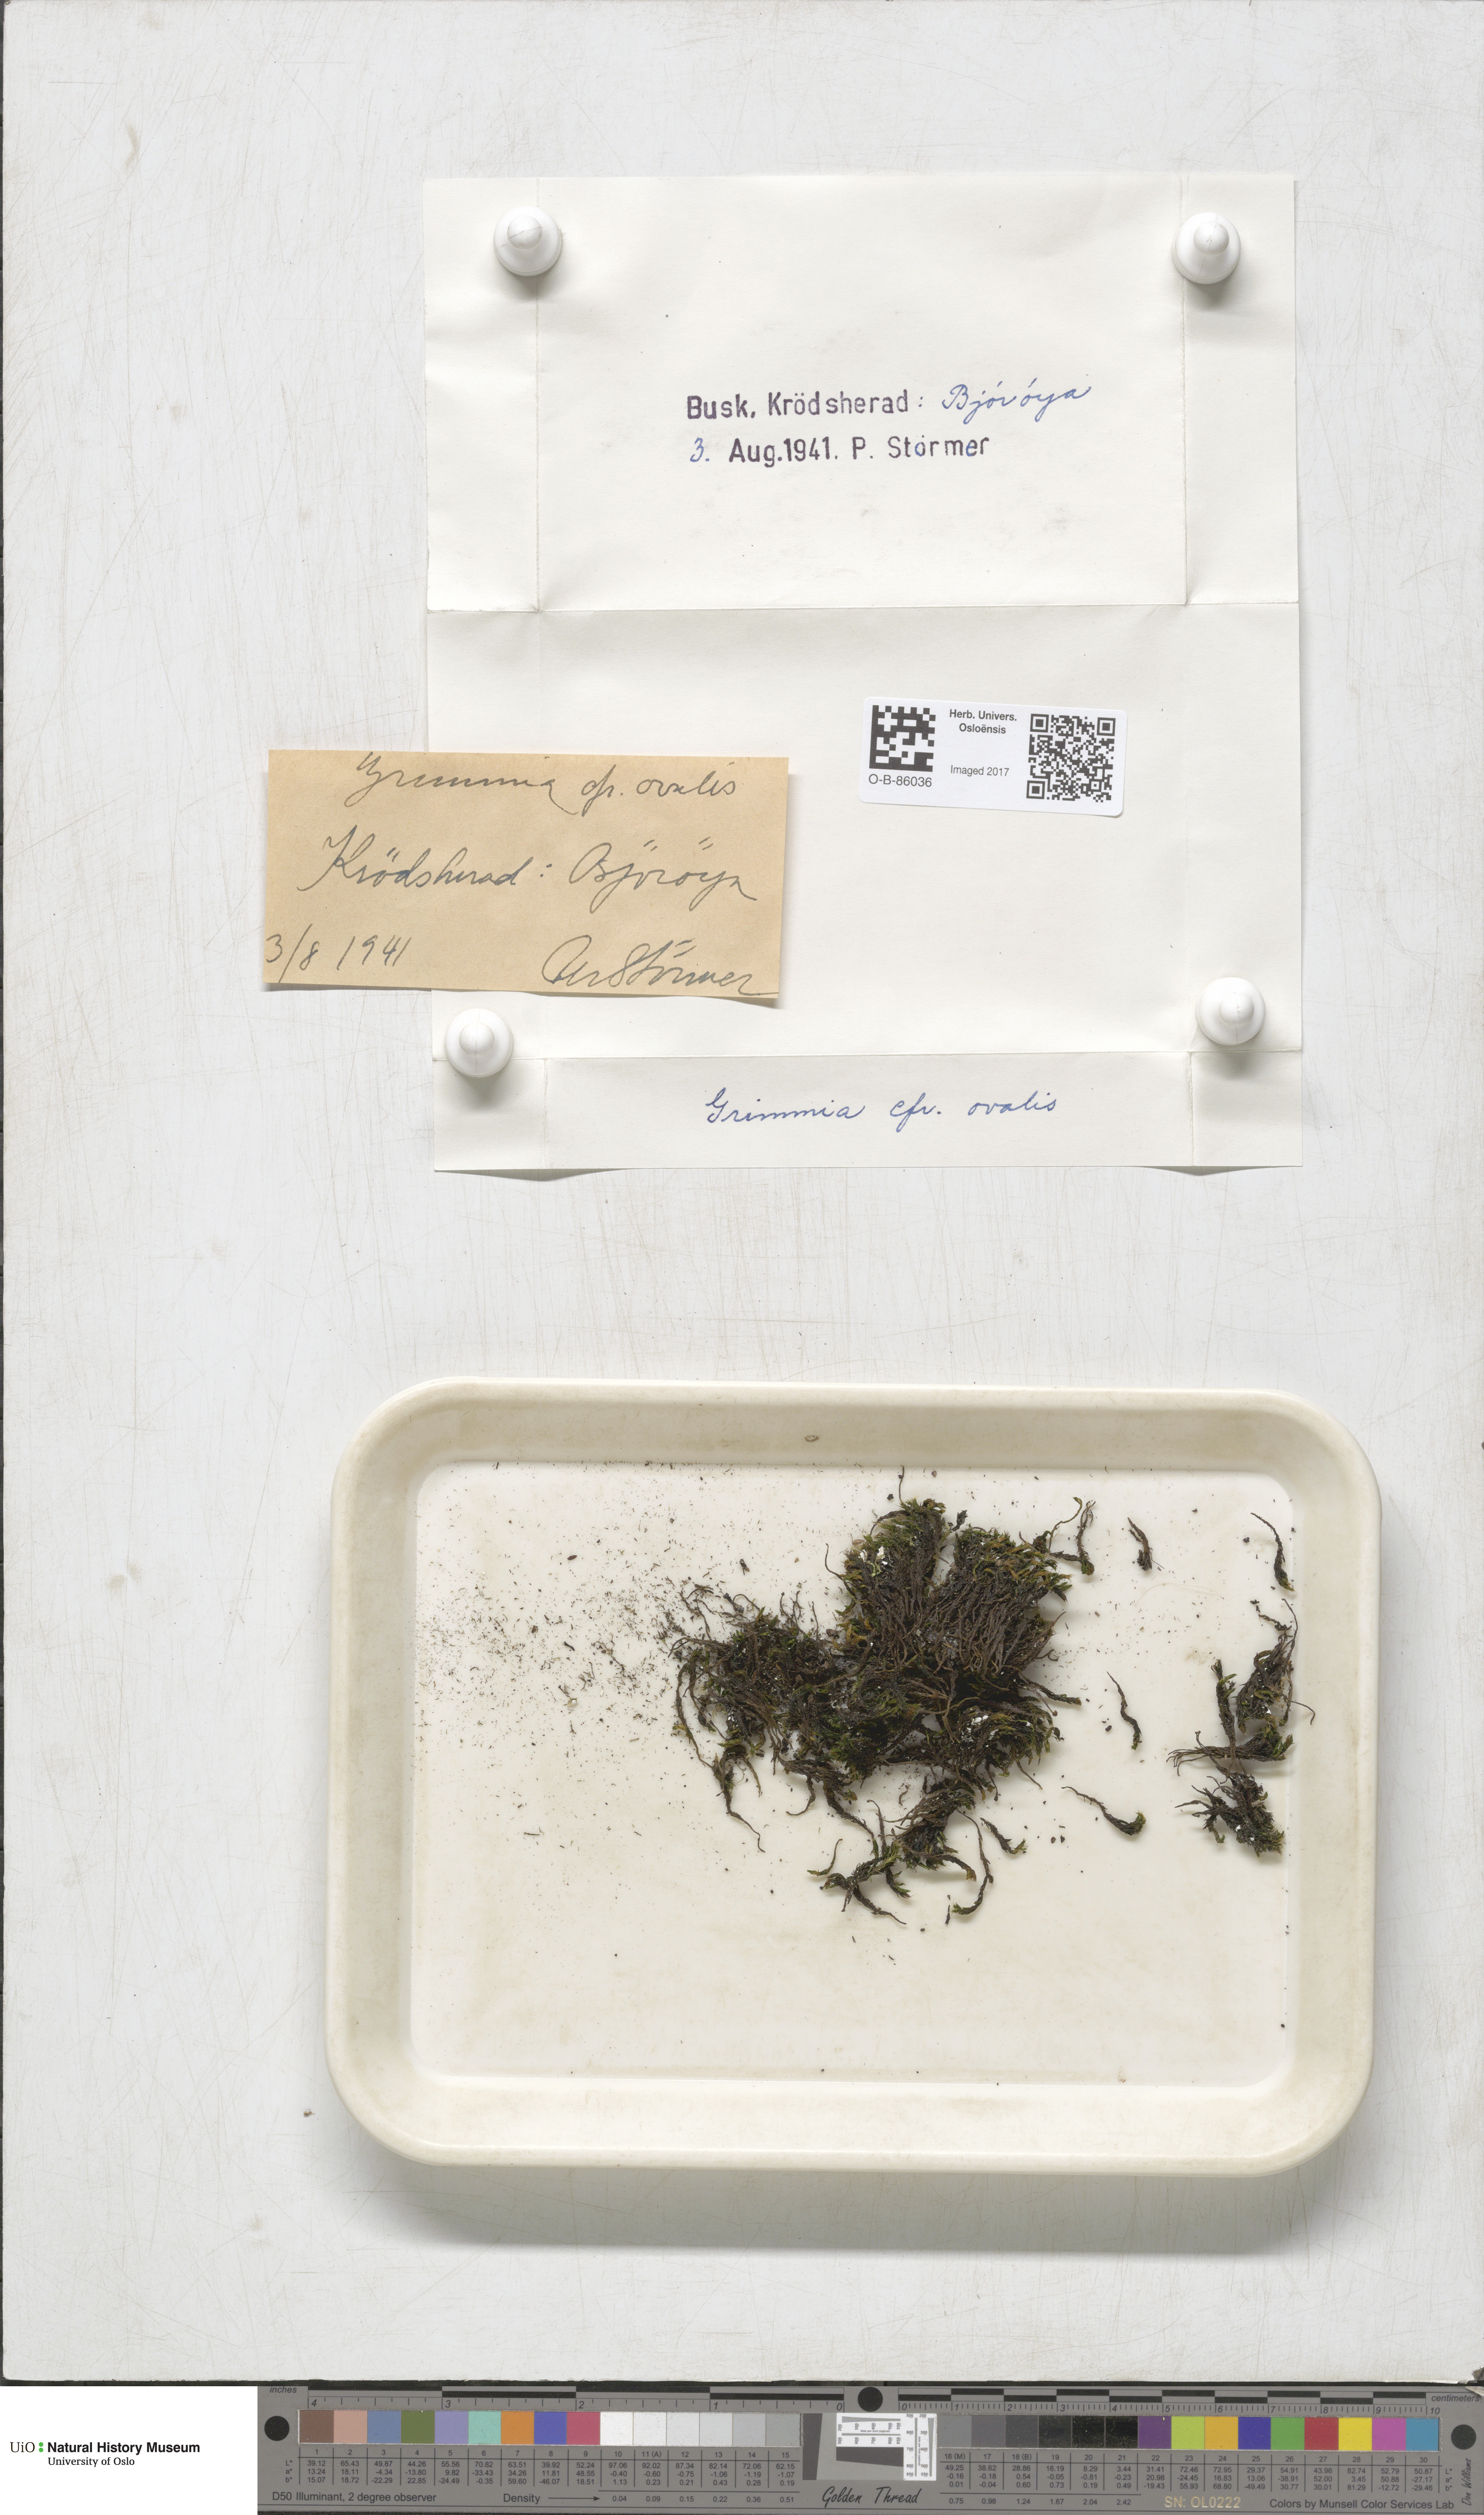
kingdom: Plantae
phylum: Bryophyta
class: Bryopsida
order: Grimmiales
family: Grimmiaceae
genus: Grimmia
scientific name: Grimmia ovalis
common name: Oval grimmia
